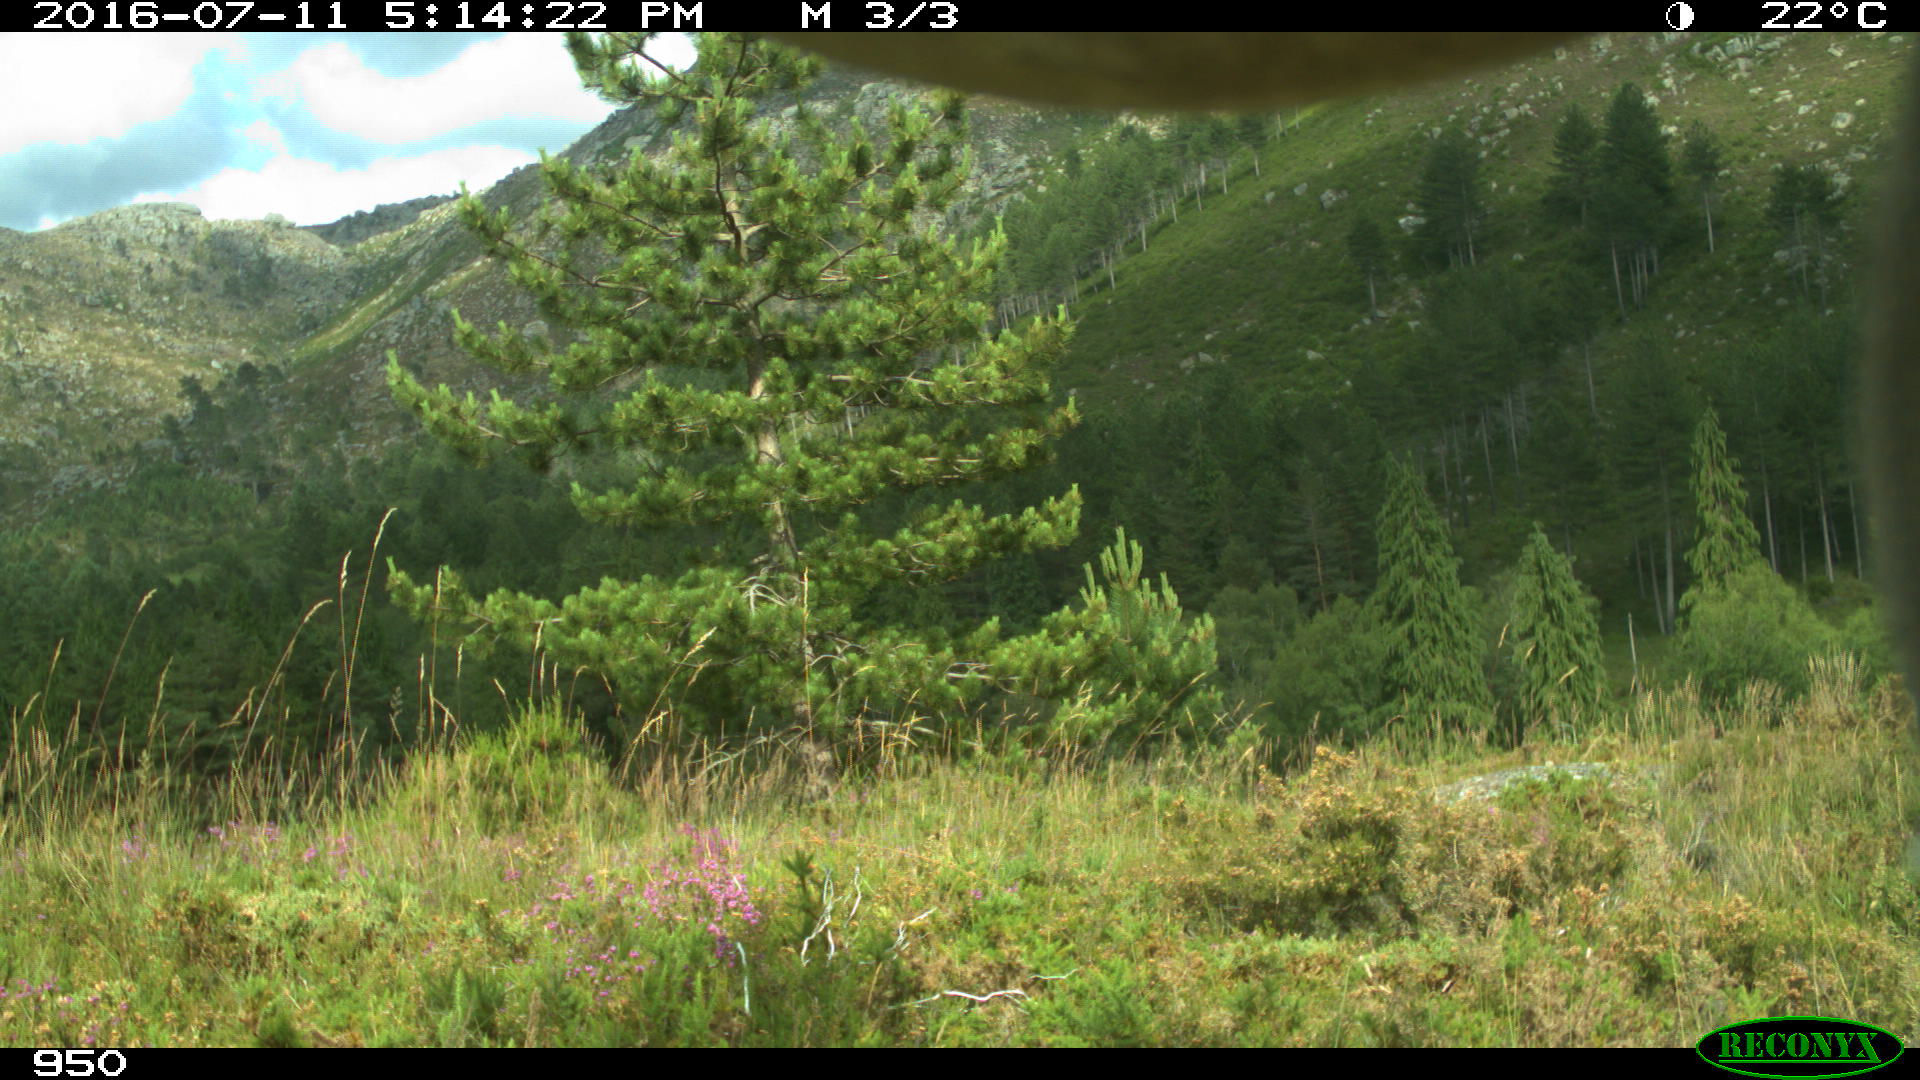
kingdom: Animalia
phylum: Chordata
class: Mammalia
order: Artiodactyla
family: Bovidae
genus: Bos
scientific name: Bos taurus
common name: Domesticated cattle
